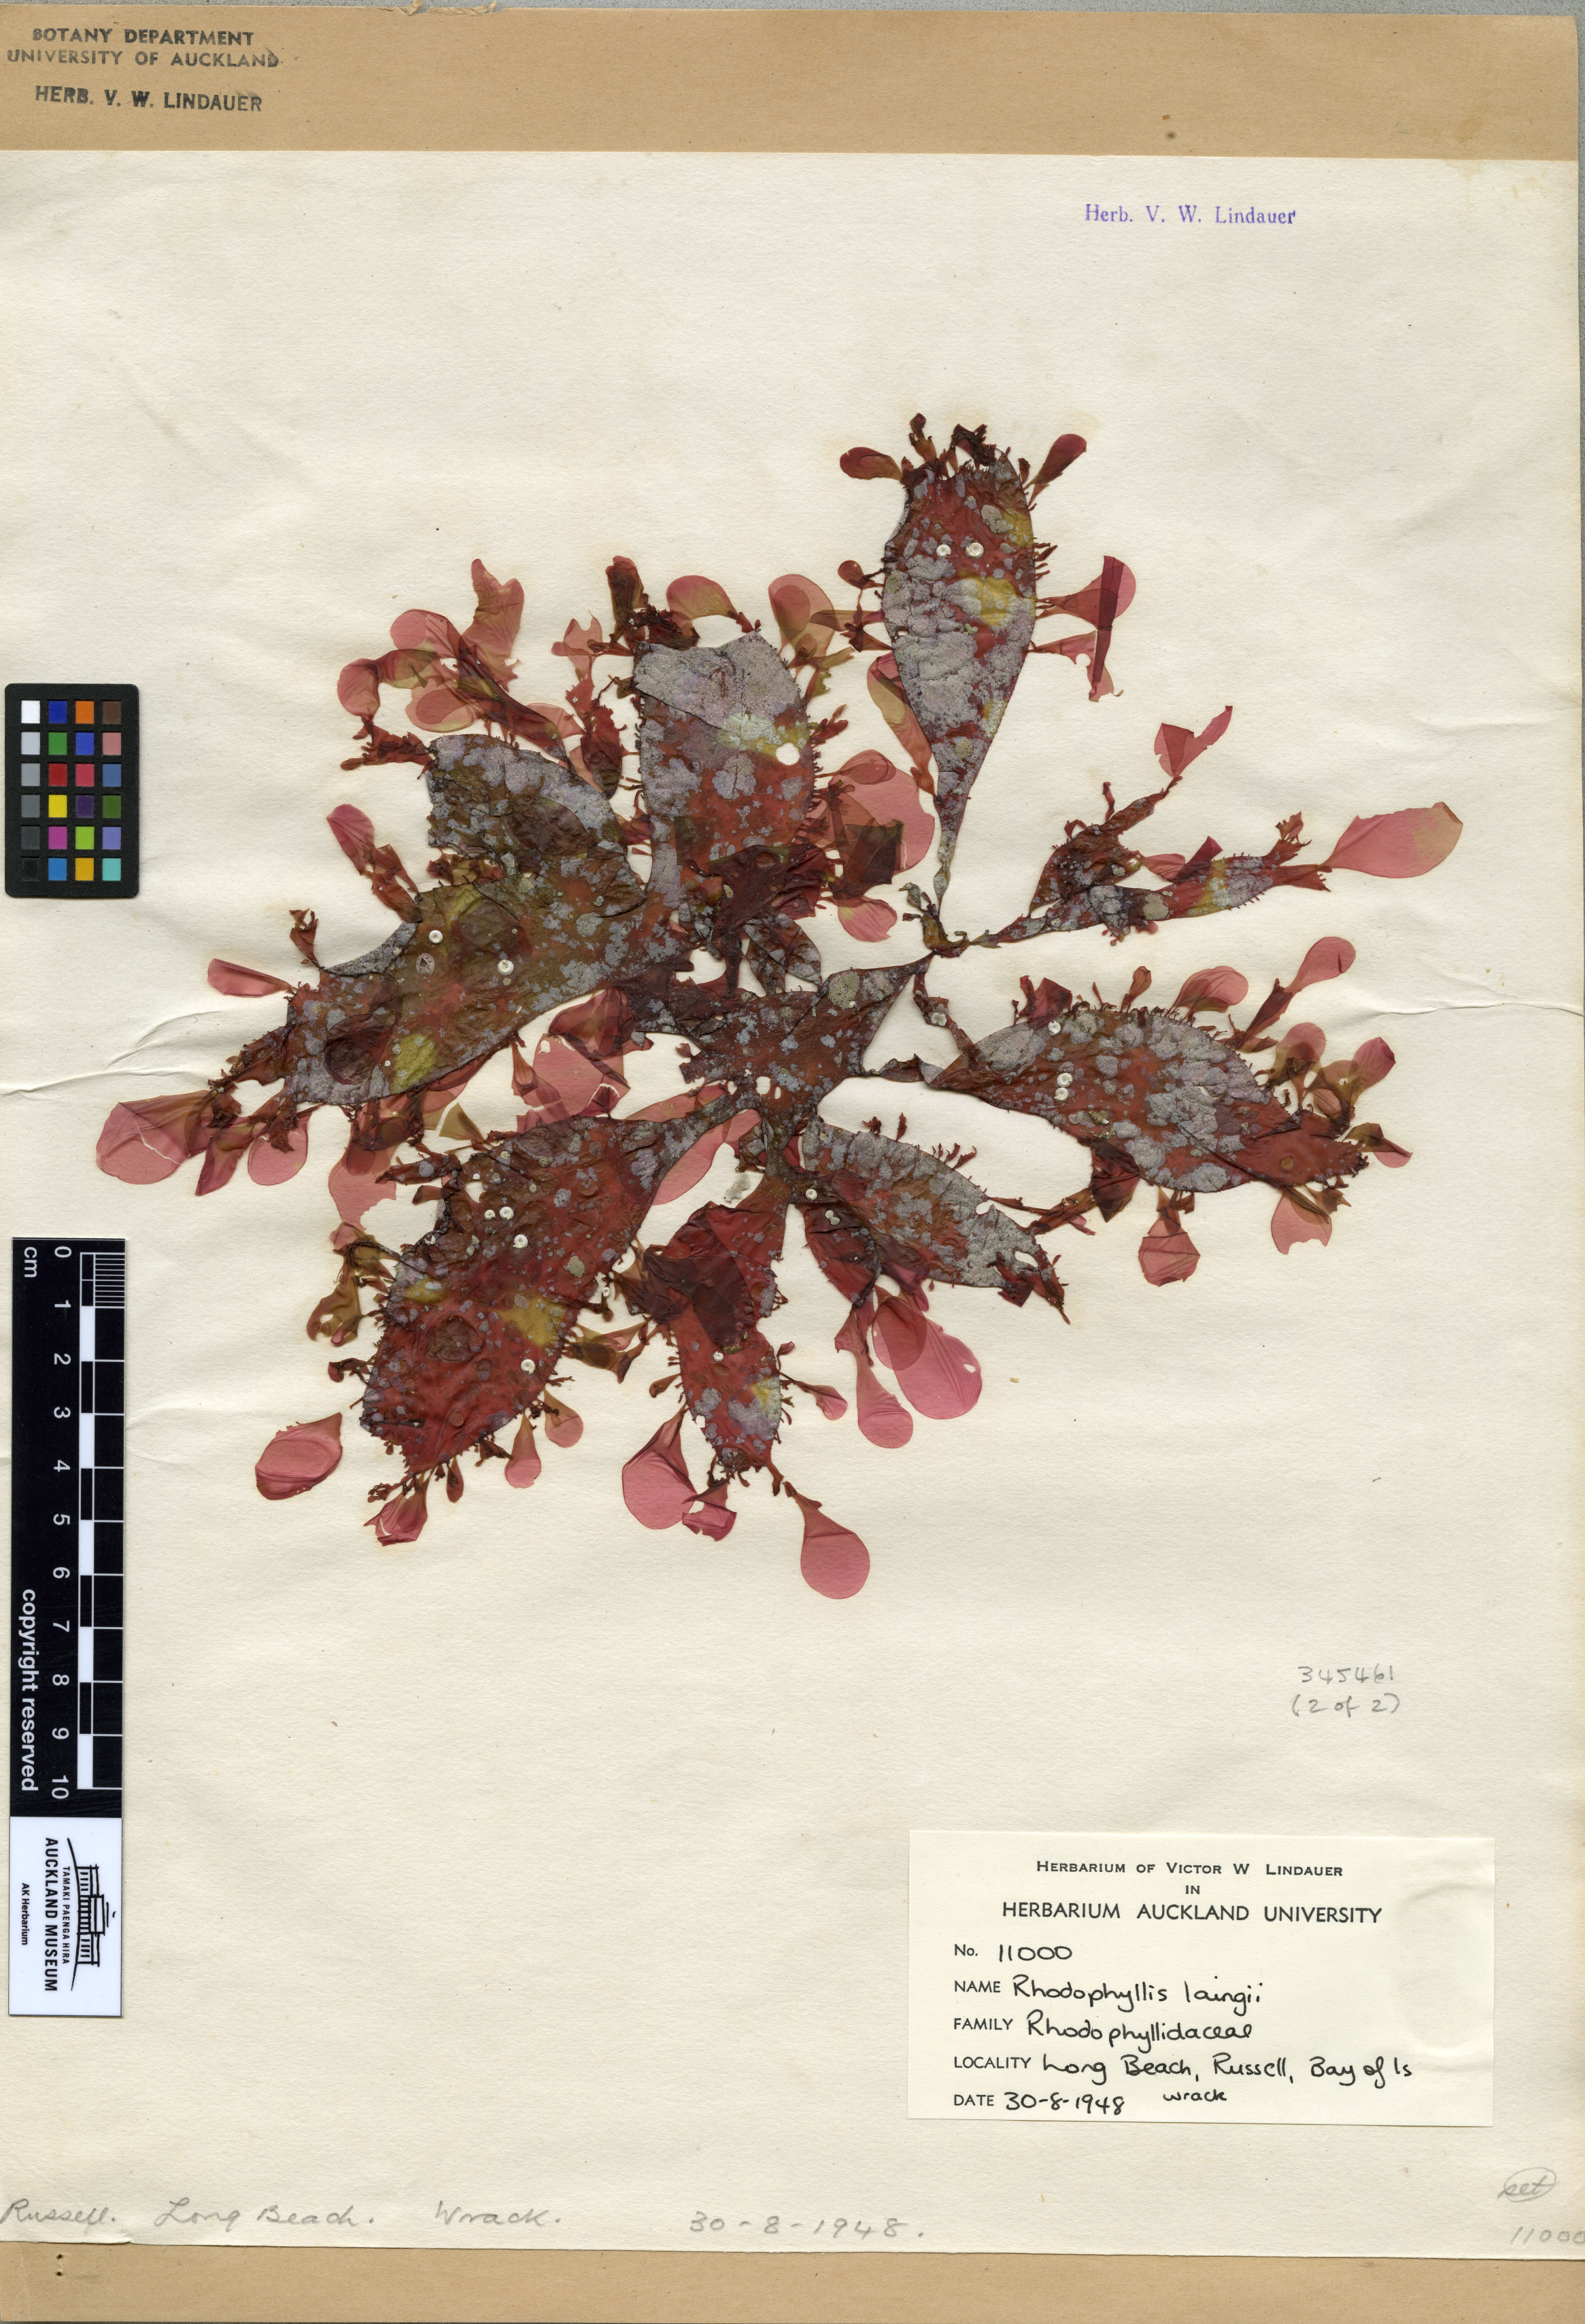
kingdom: Plantae
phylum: Rhodophyta
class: Florideophyceae
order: Halymeniales
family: Halymeniaceae
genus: Cryptonemia
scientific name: Cryptonemia
